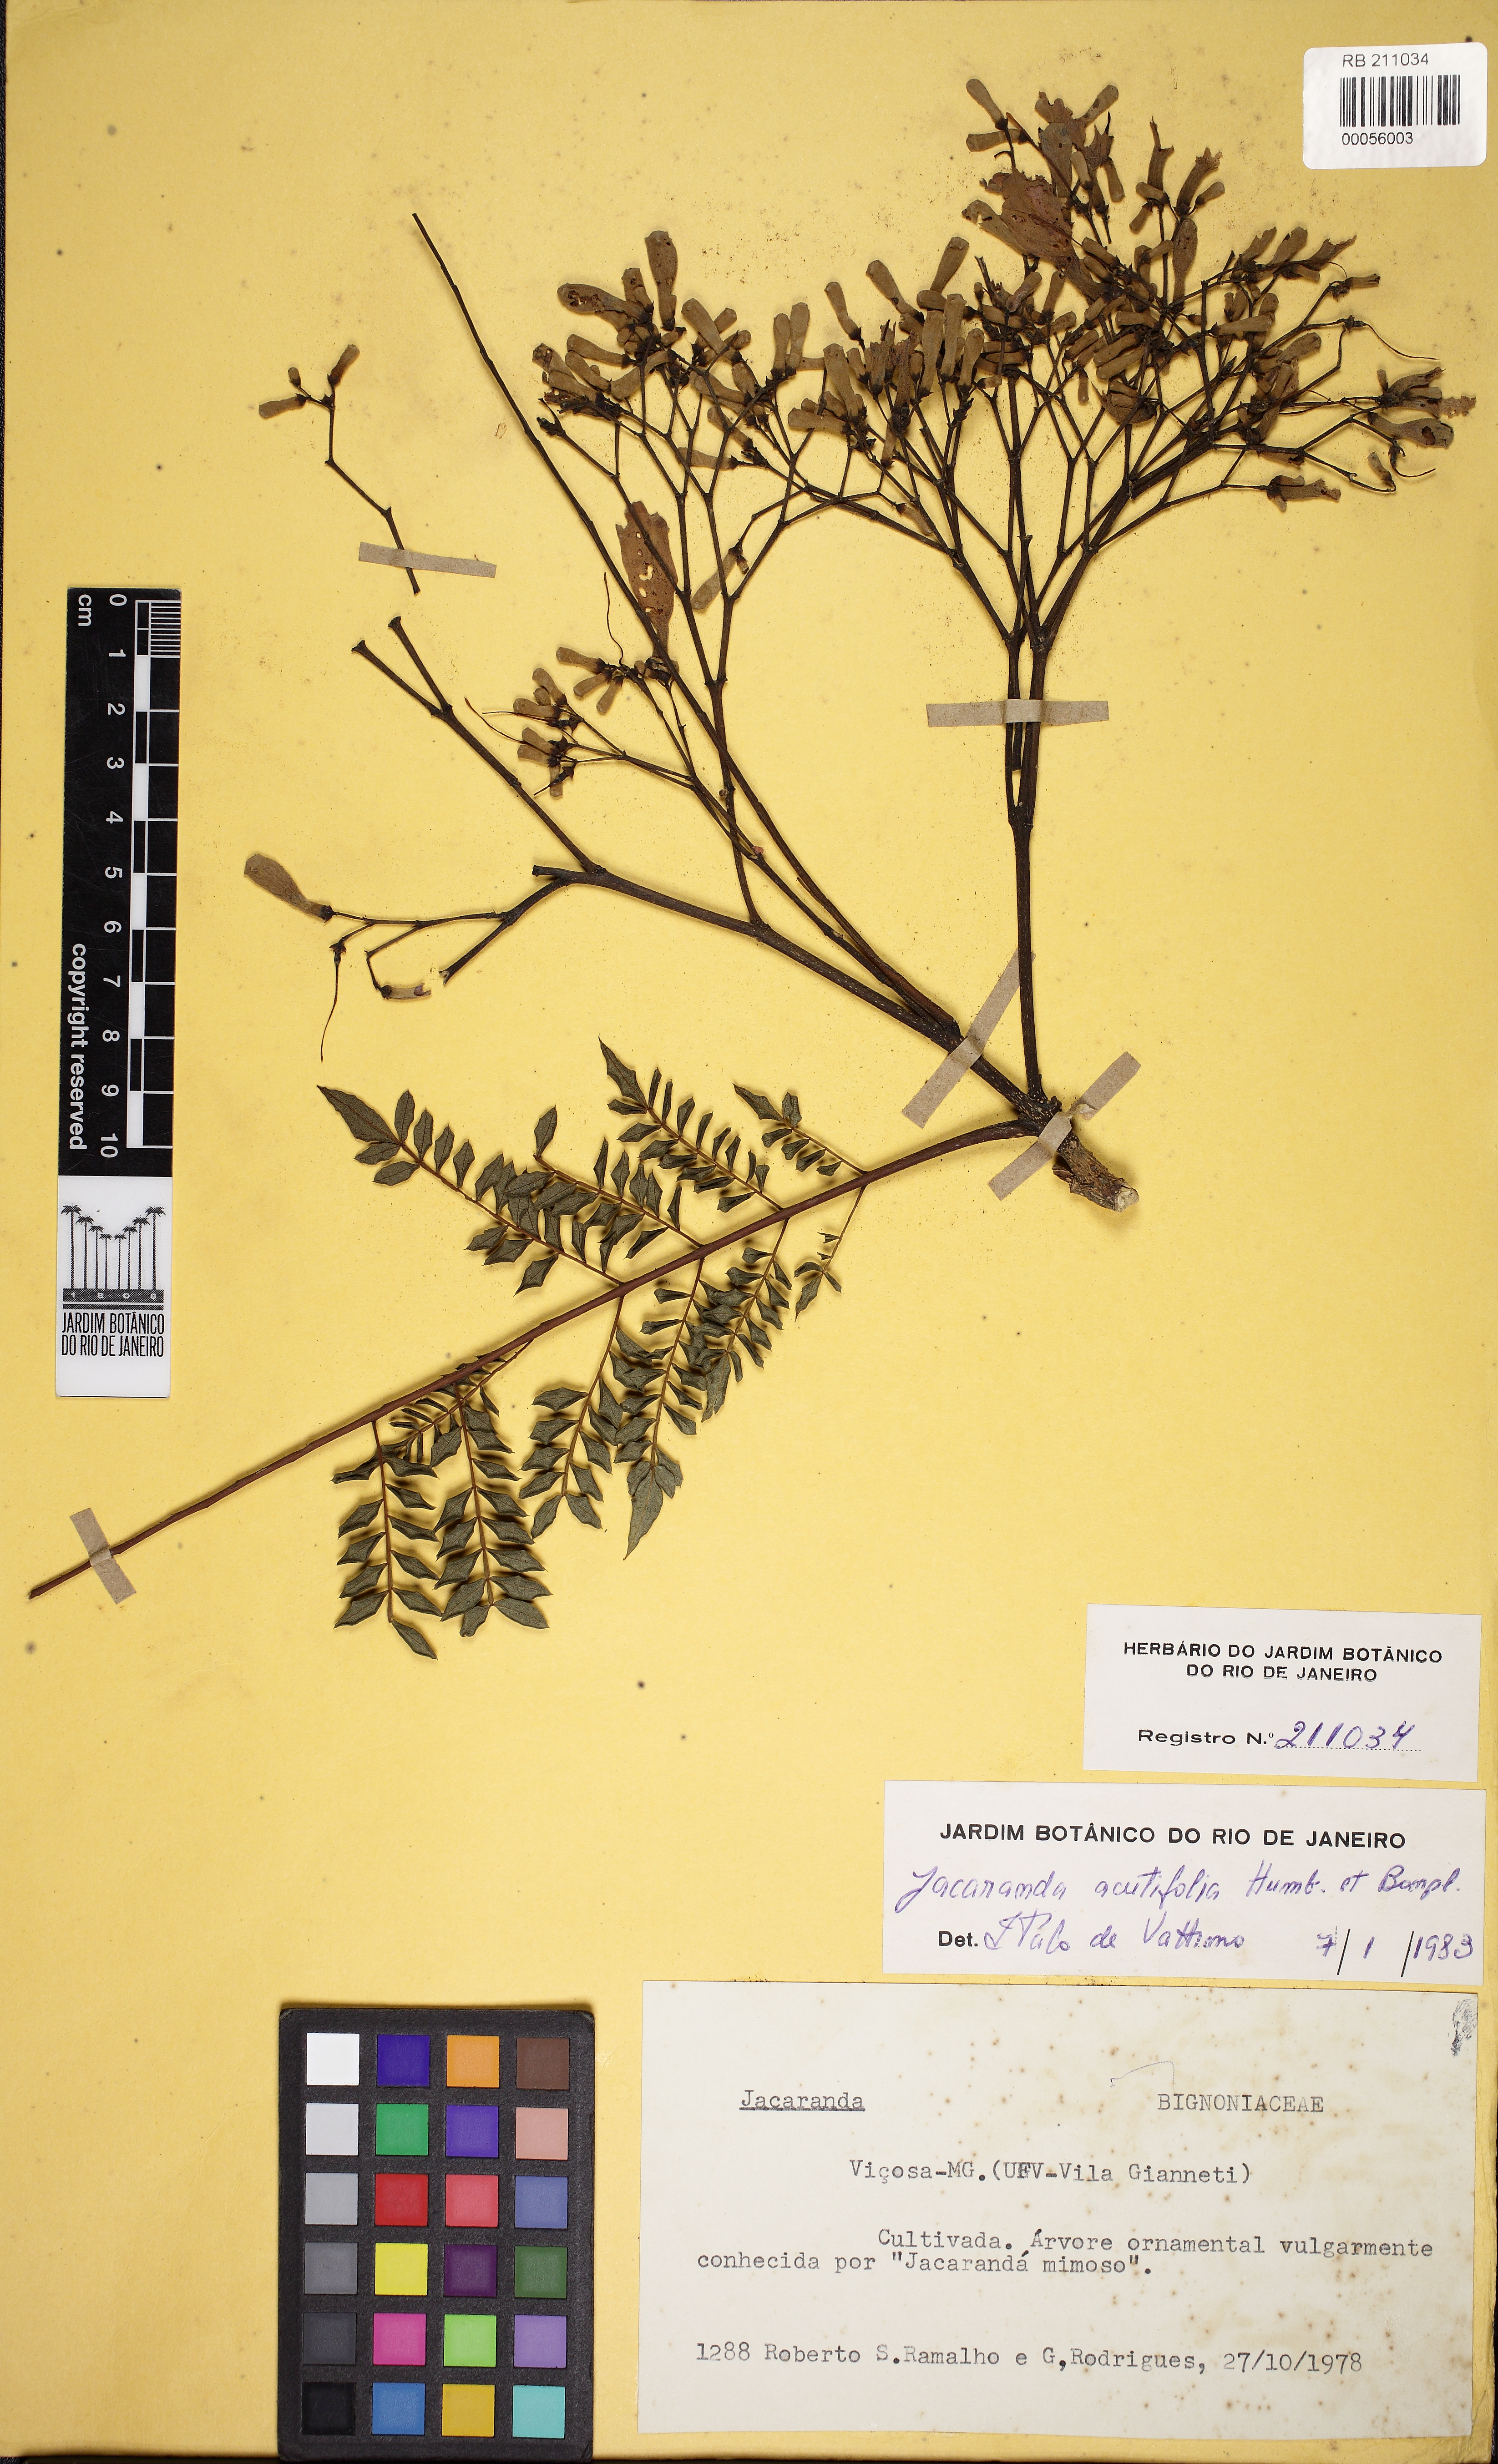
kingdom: Plantae
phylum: Tracheophyta
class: Magnoliopsida
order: Lamiales
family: Bignoniaceae
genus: Jacaranda
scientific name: Jacaranda acutifolia
